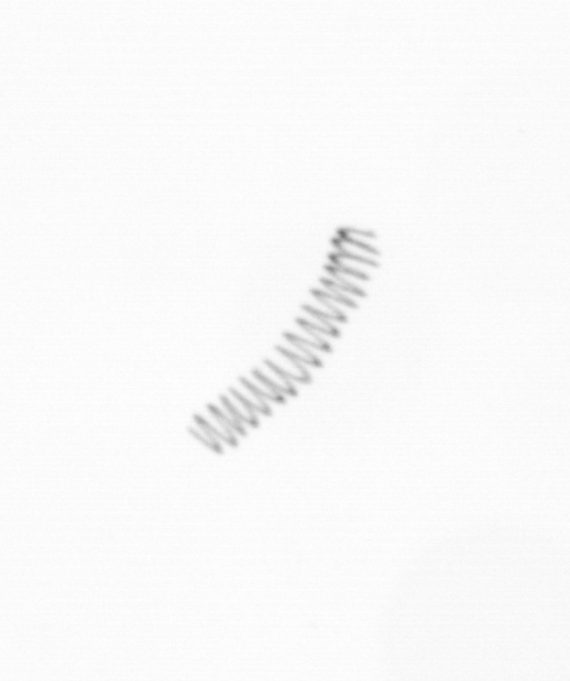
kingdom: Chromista
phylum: Ochrophyta
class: Bacillariophyceae
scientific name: Bacillariophyceae
